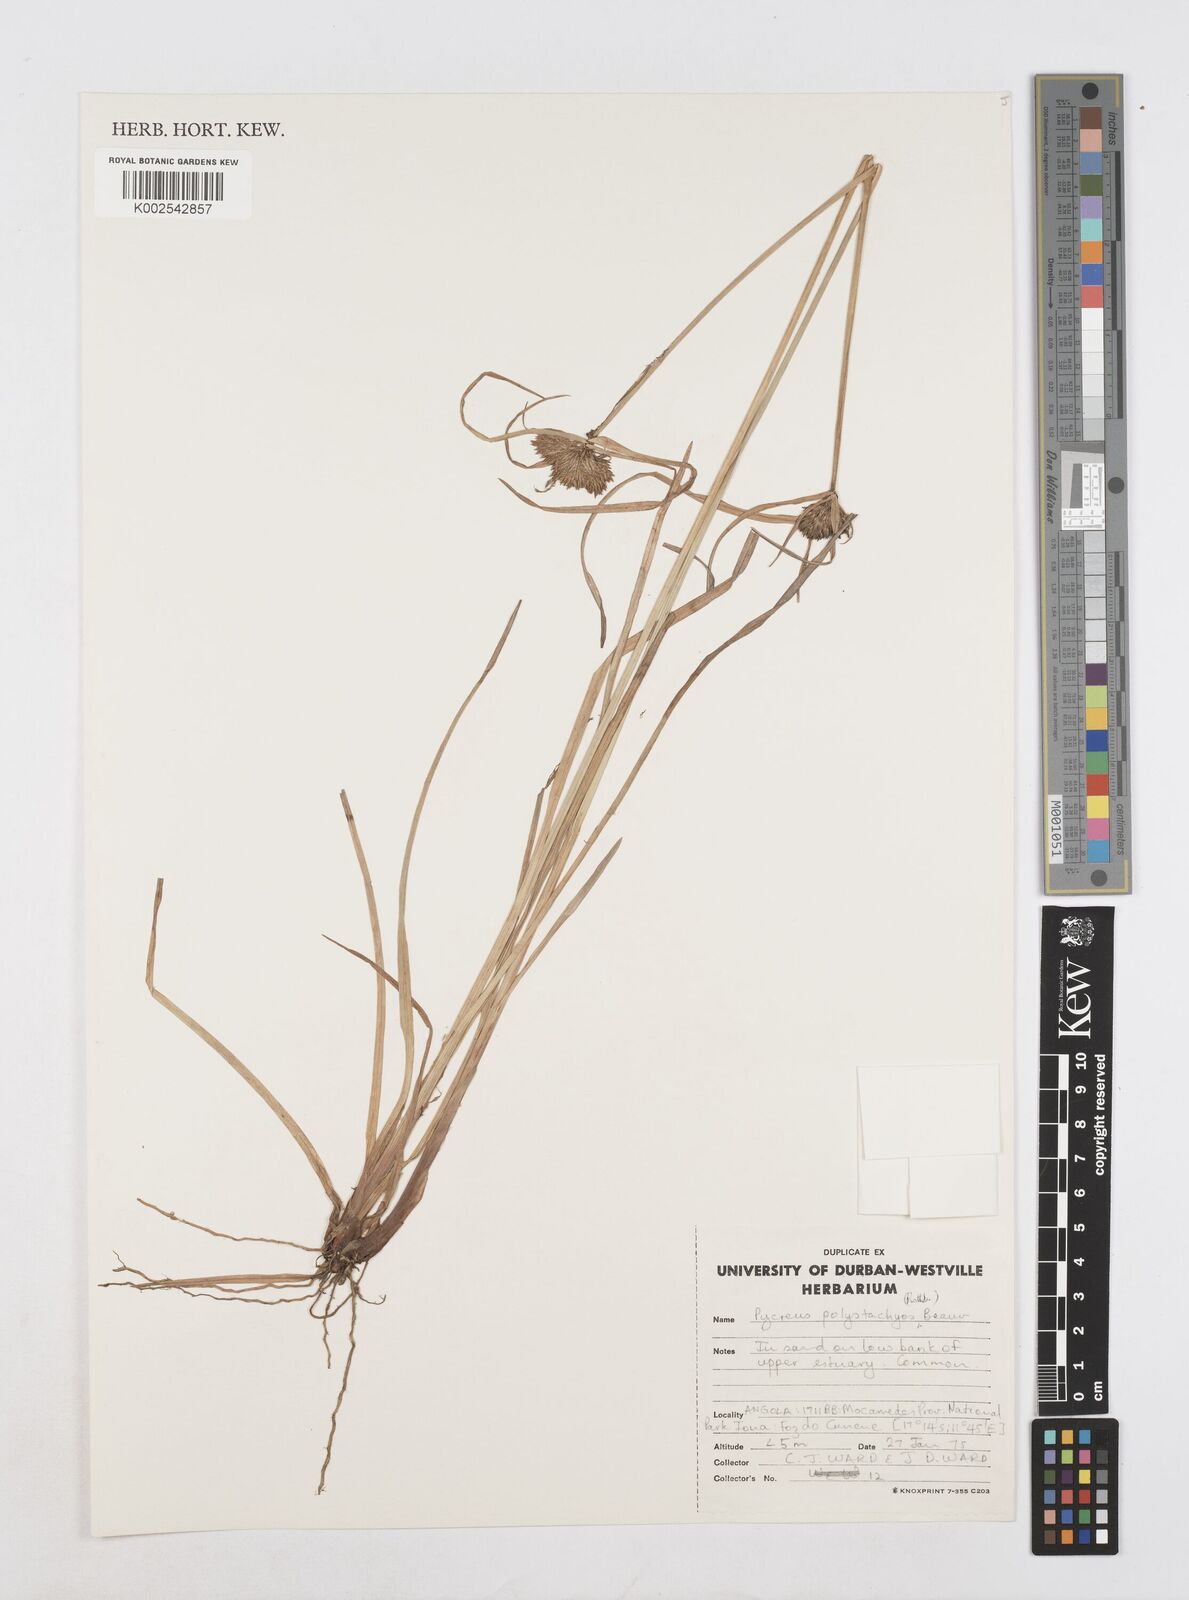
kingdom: Plantae
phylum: Tracheophyta
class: Liliopsida
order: Poales
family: Cyperaceae
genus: Cyperus
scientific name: Cyperus polystachyos
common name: Bunchy flat sedge
